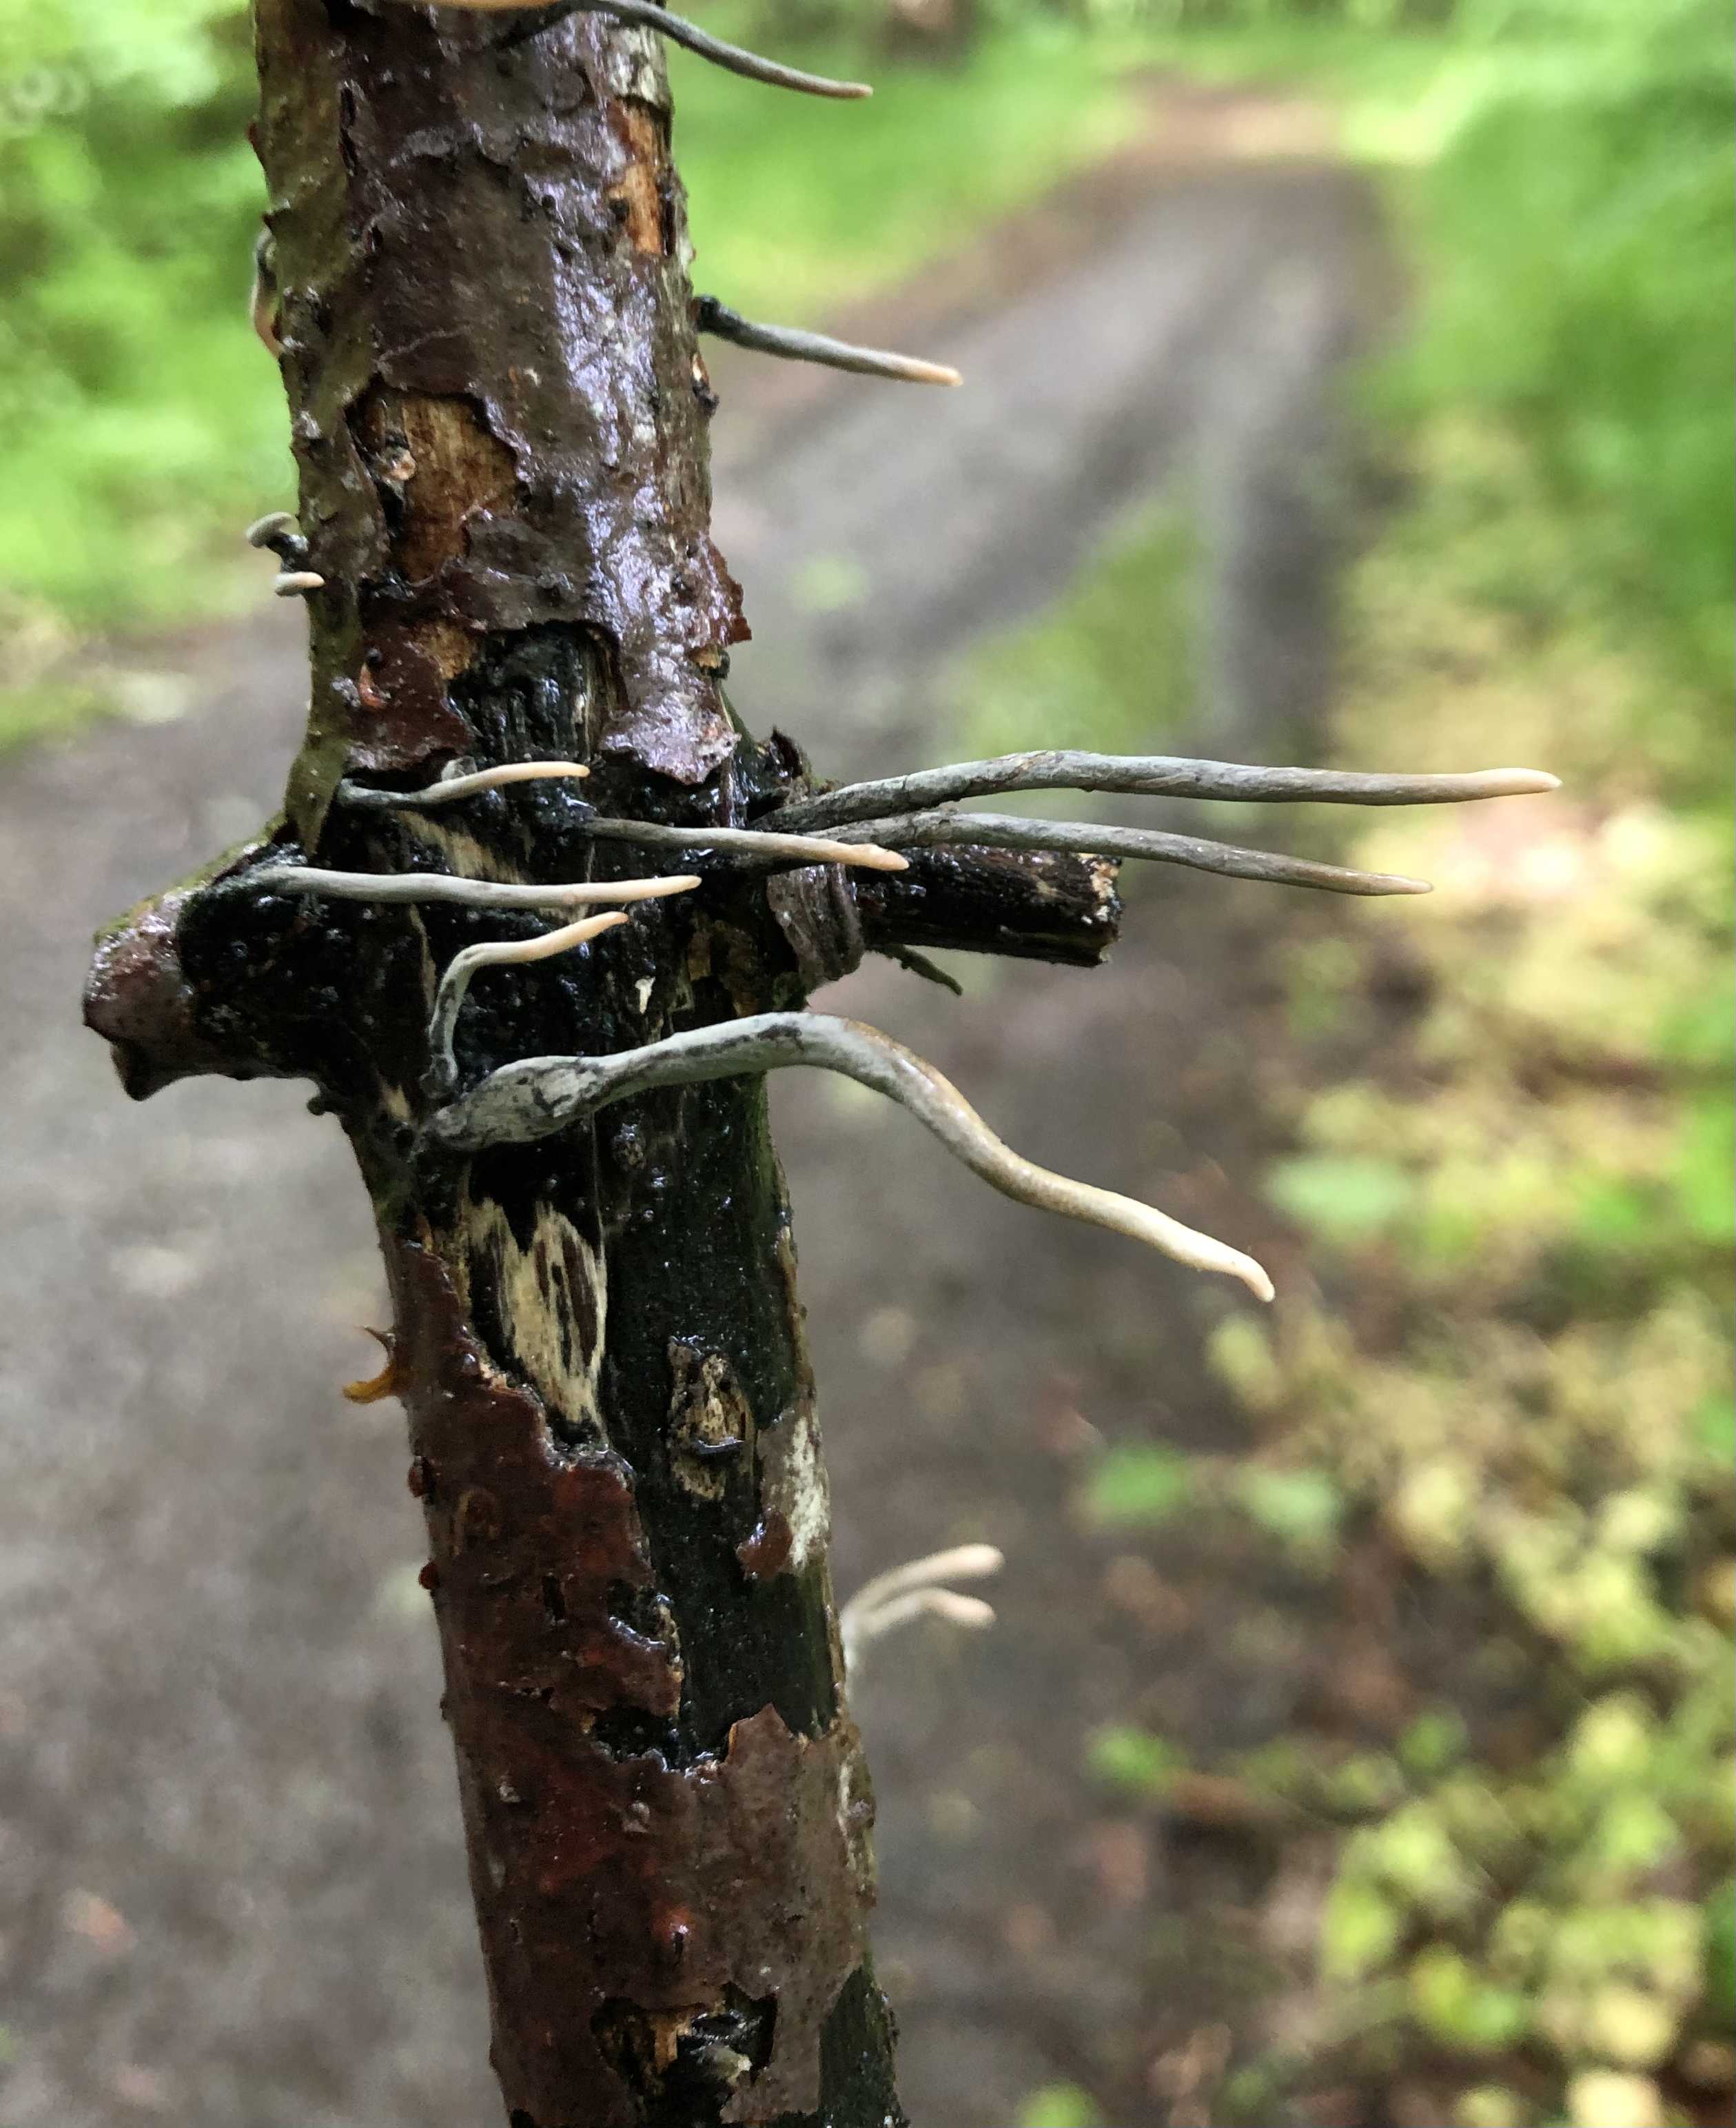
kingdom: Fungi
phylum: Ascomycota
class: Sordariomycetes
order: Xylariales
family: Xylariaceae
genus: Xylaria
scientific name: Xylaria hypoxylon
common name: grenet stødsvamp
